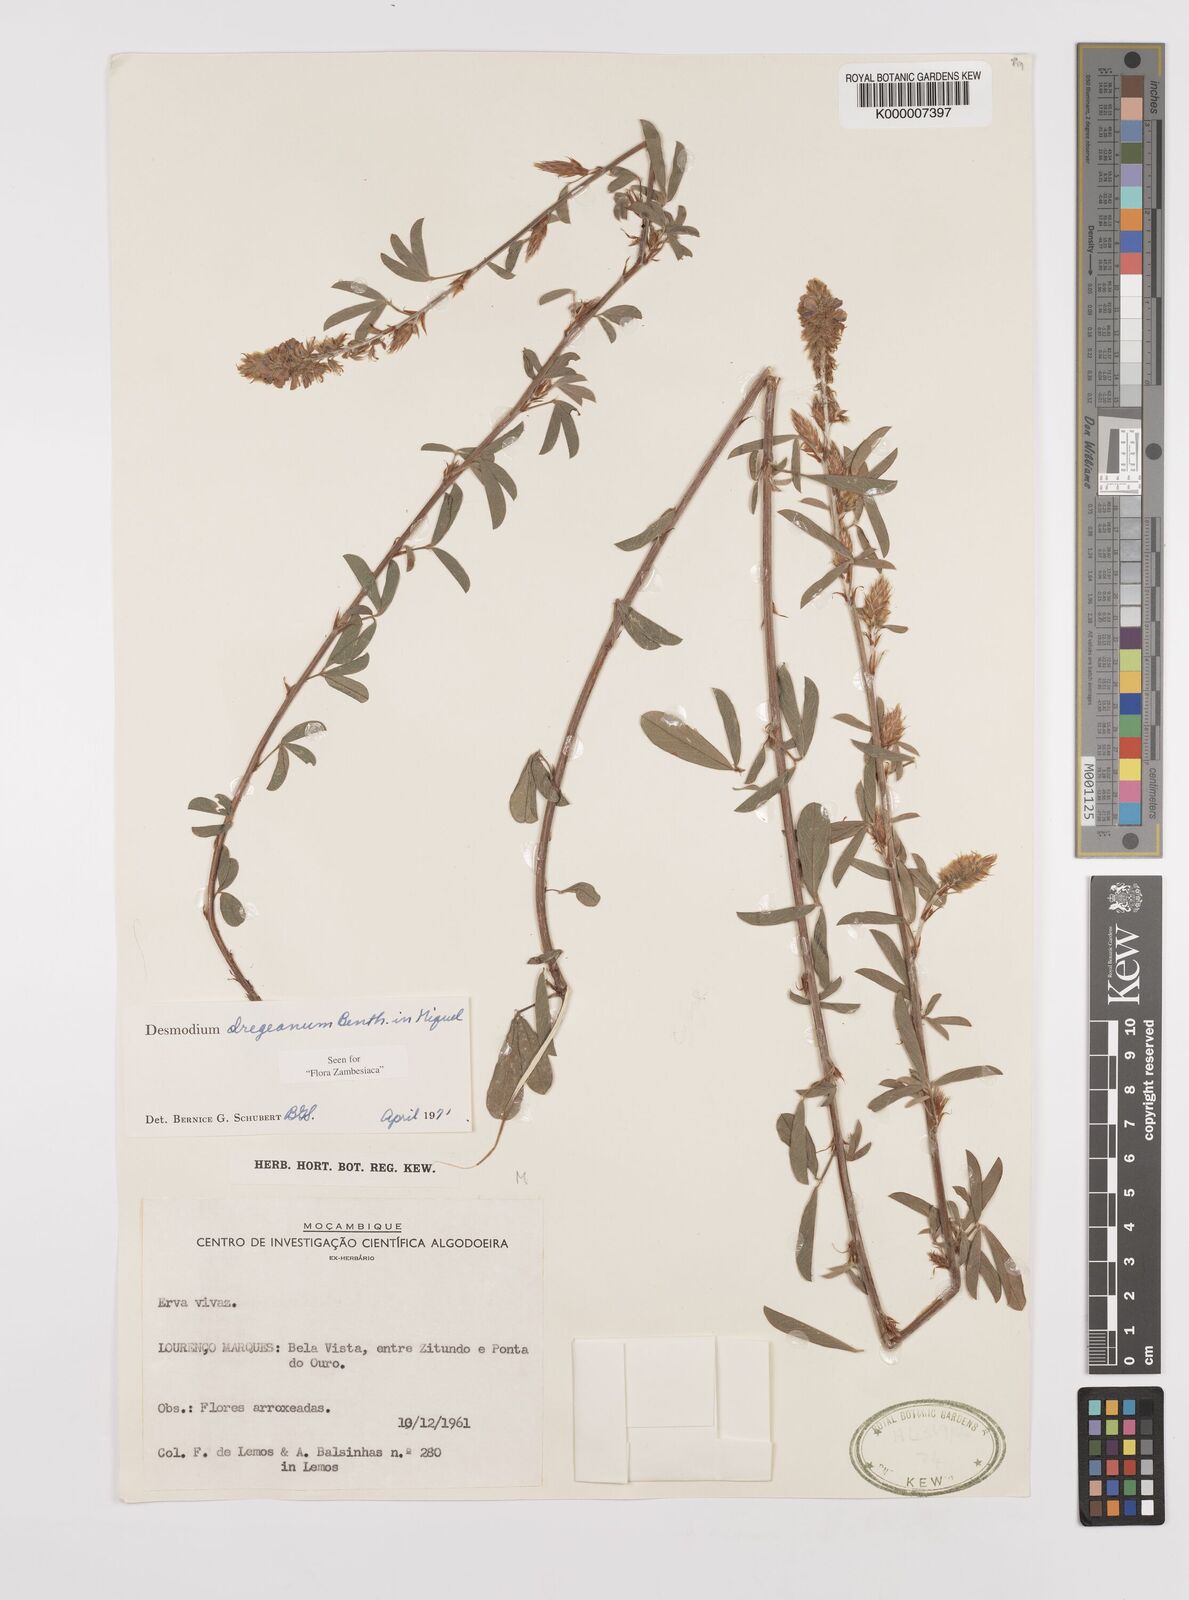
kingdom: Plantae
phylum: Tracheophyta
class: Magnoliopsida
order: Fabales
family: Fabaceae
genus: Grona
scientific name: Grona caffra
